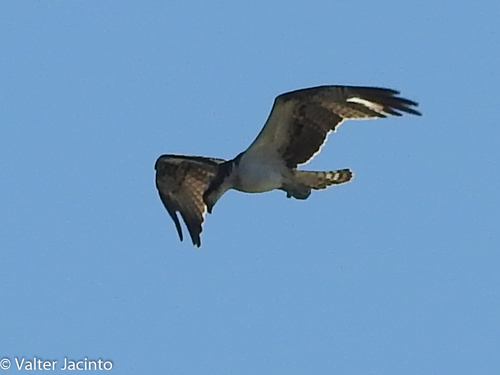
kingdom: Animalia
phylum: Chordata
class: Aves
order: Accipitriformes
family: Pandionidae
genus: Pandion
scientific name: Pandion haliaetus
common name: Osprey
